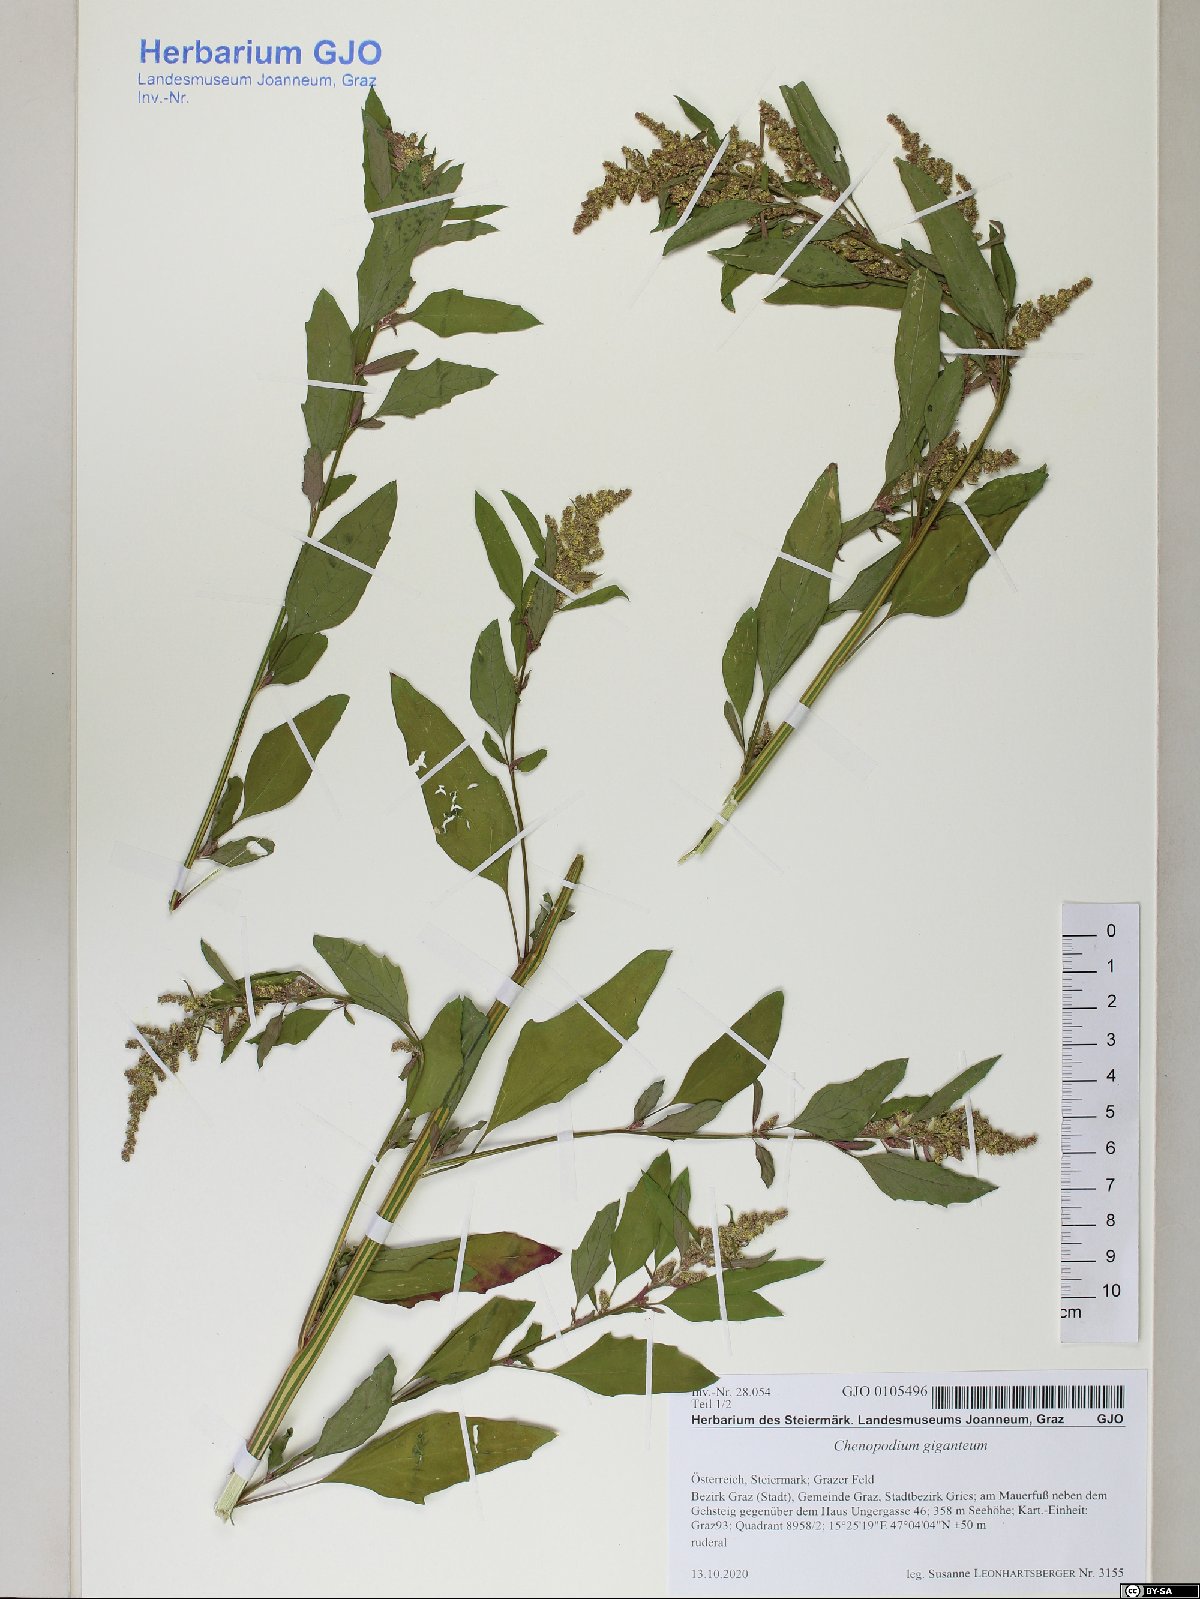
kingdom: Plantae
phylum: Tracheophyta
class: Magnoliopsida
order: Caryophyllales
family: Amaranthaceae
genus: Chenopodium
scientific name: Chenopodium giganteum
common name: Magentaspreen
